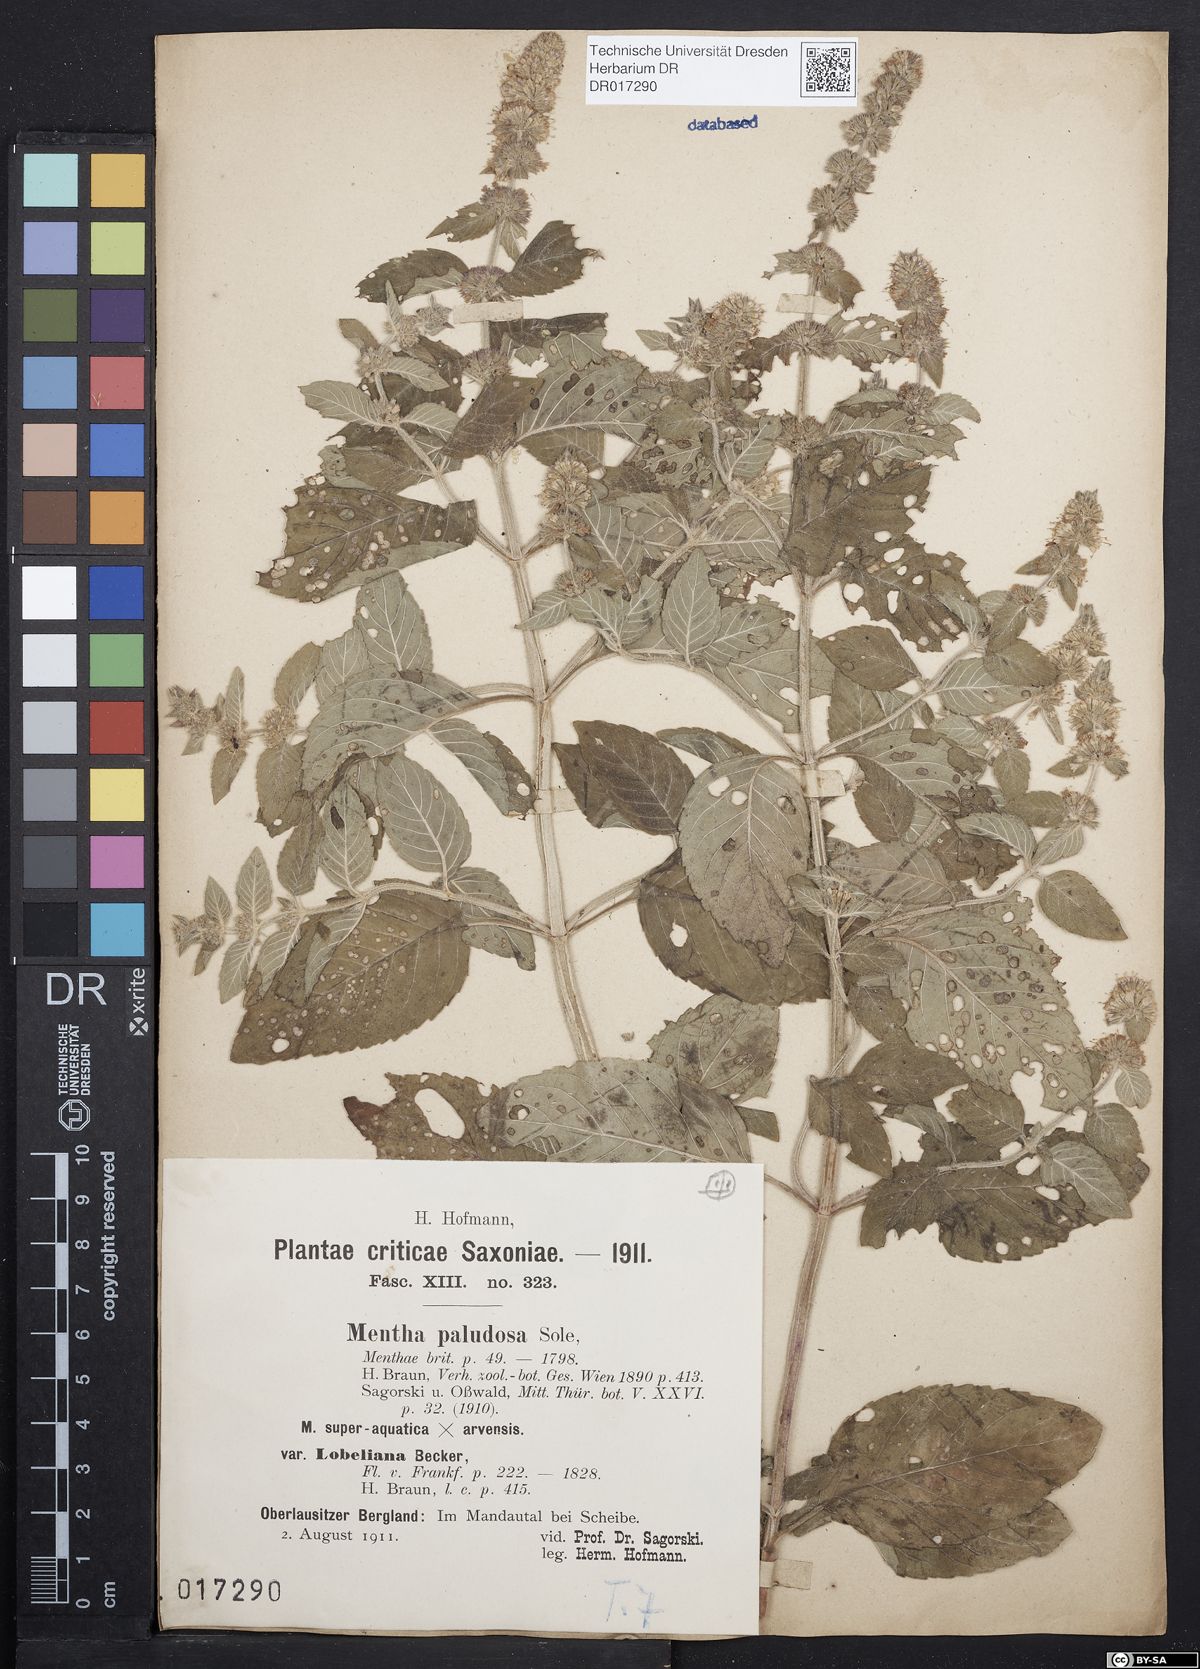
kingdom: Plantae
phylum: Tracheophyta
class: Magnoliopsida
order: Lamiales
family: Lamiaceae
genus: Mentha
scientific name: Mentha verticillata
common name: Mint
